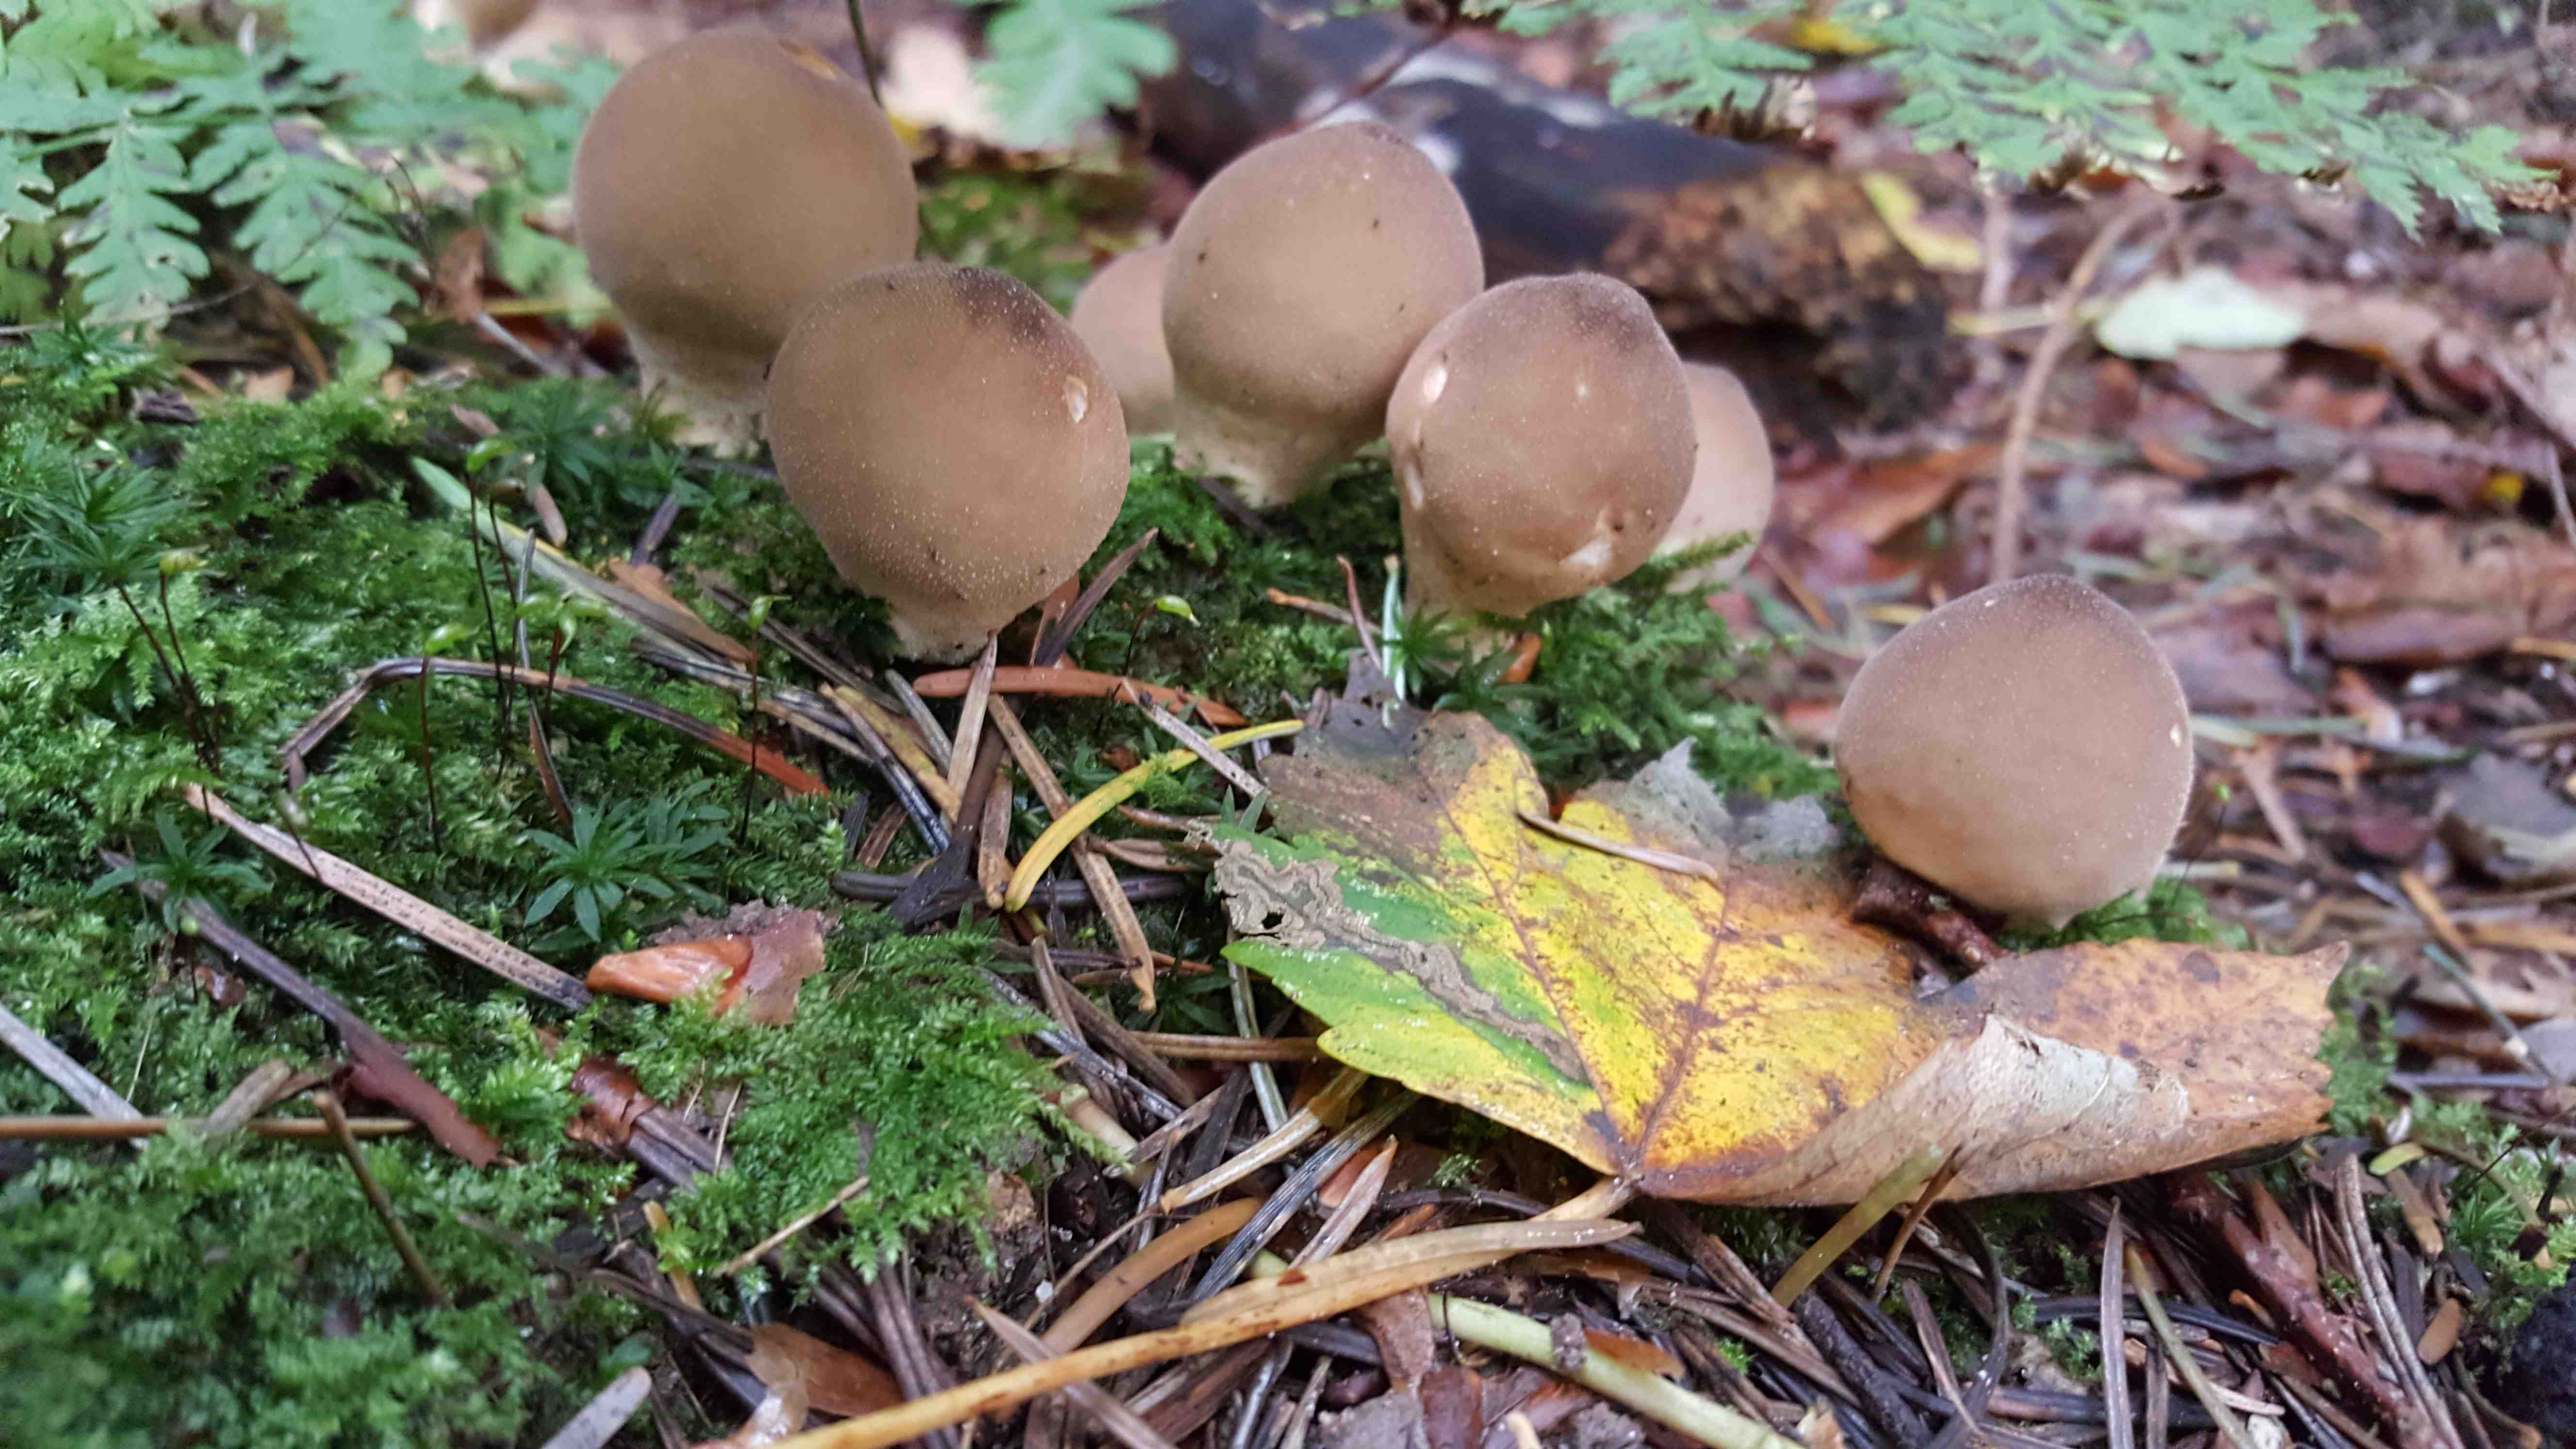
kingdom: Fungi
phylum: Basidiomycota
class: Agaricomycetes
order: Agaricales
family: Lycoperdaceae
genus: Apioperdon
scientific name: Apioperdon pyriforme
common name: pære-støvbold
